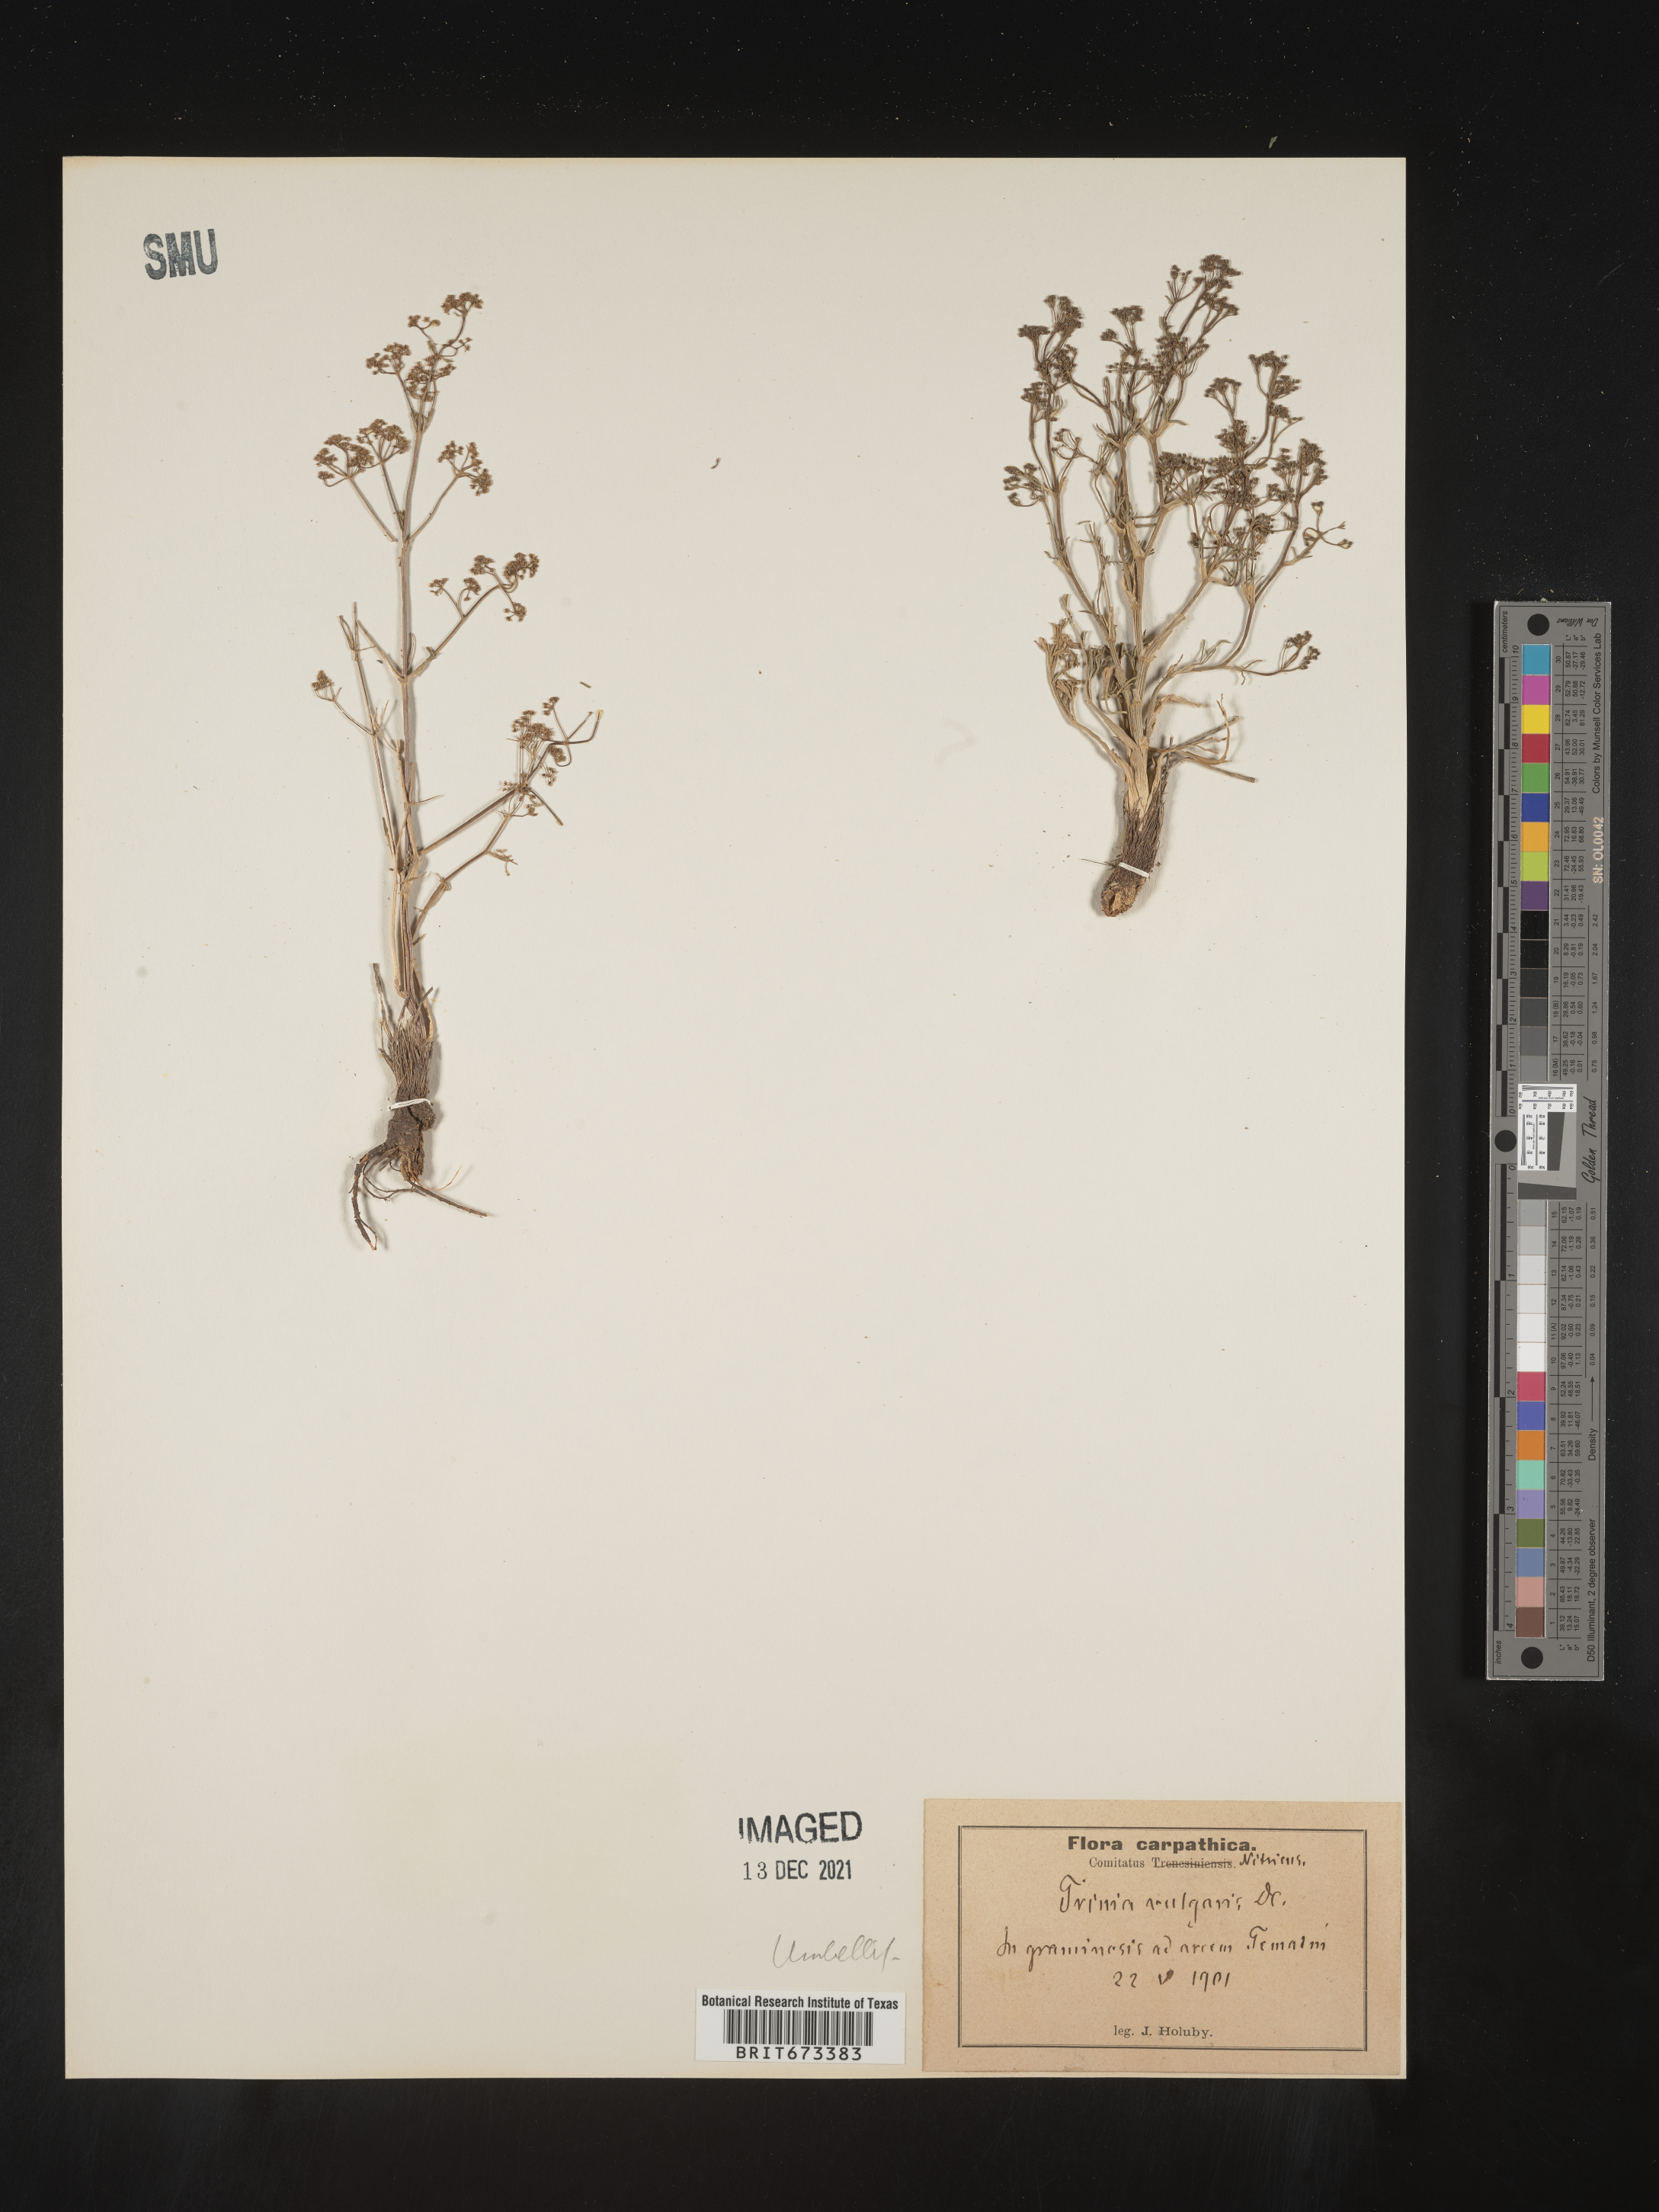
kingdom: Plantae
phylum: Tracheophyta
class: Magnoliopsida
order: Apiales
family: Apiaceae
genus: Trinia
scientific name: Trinia
